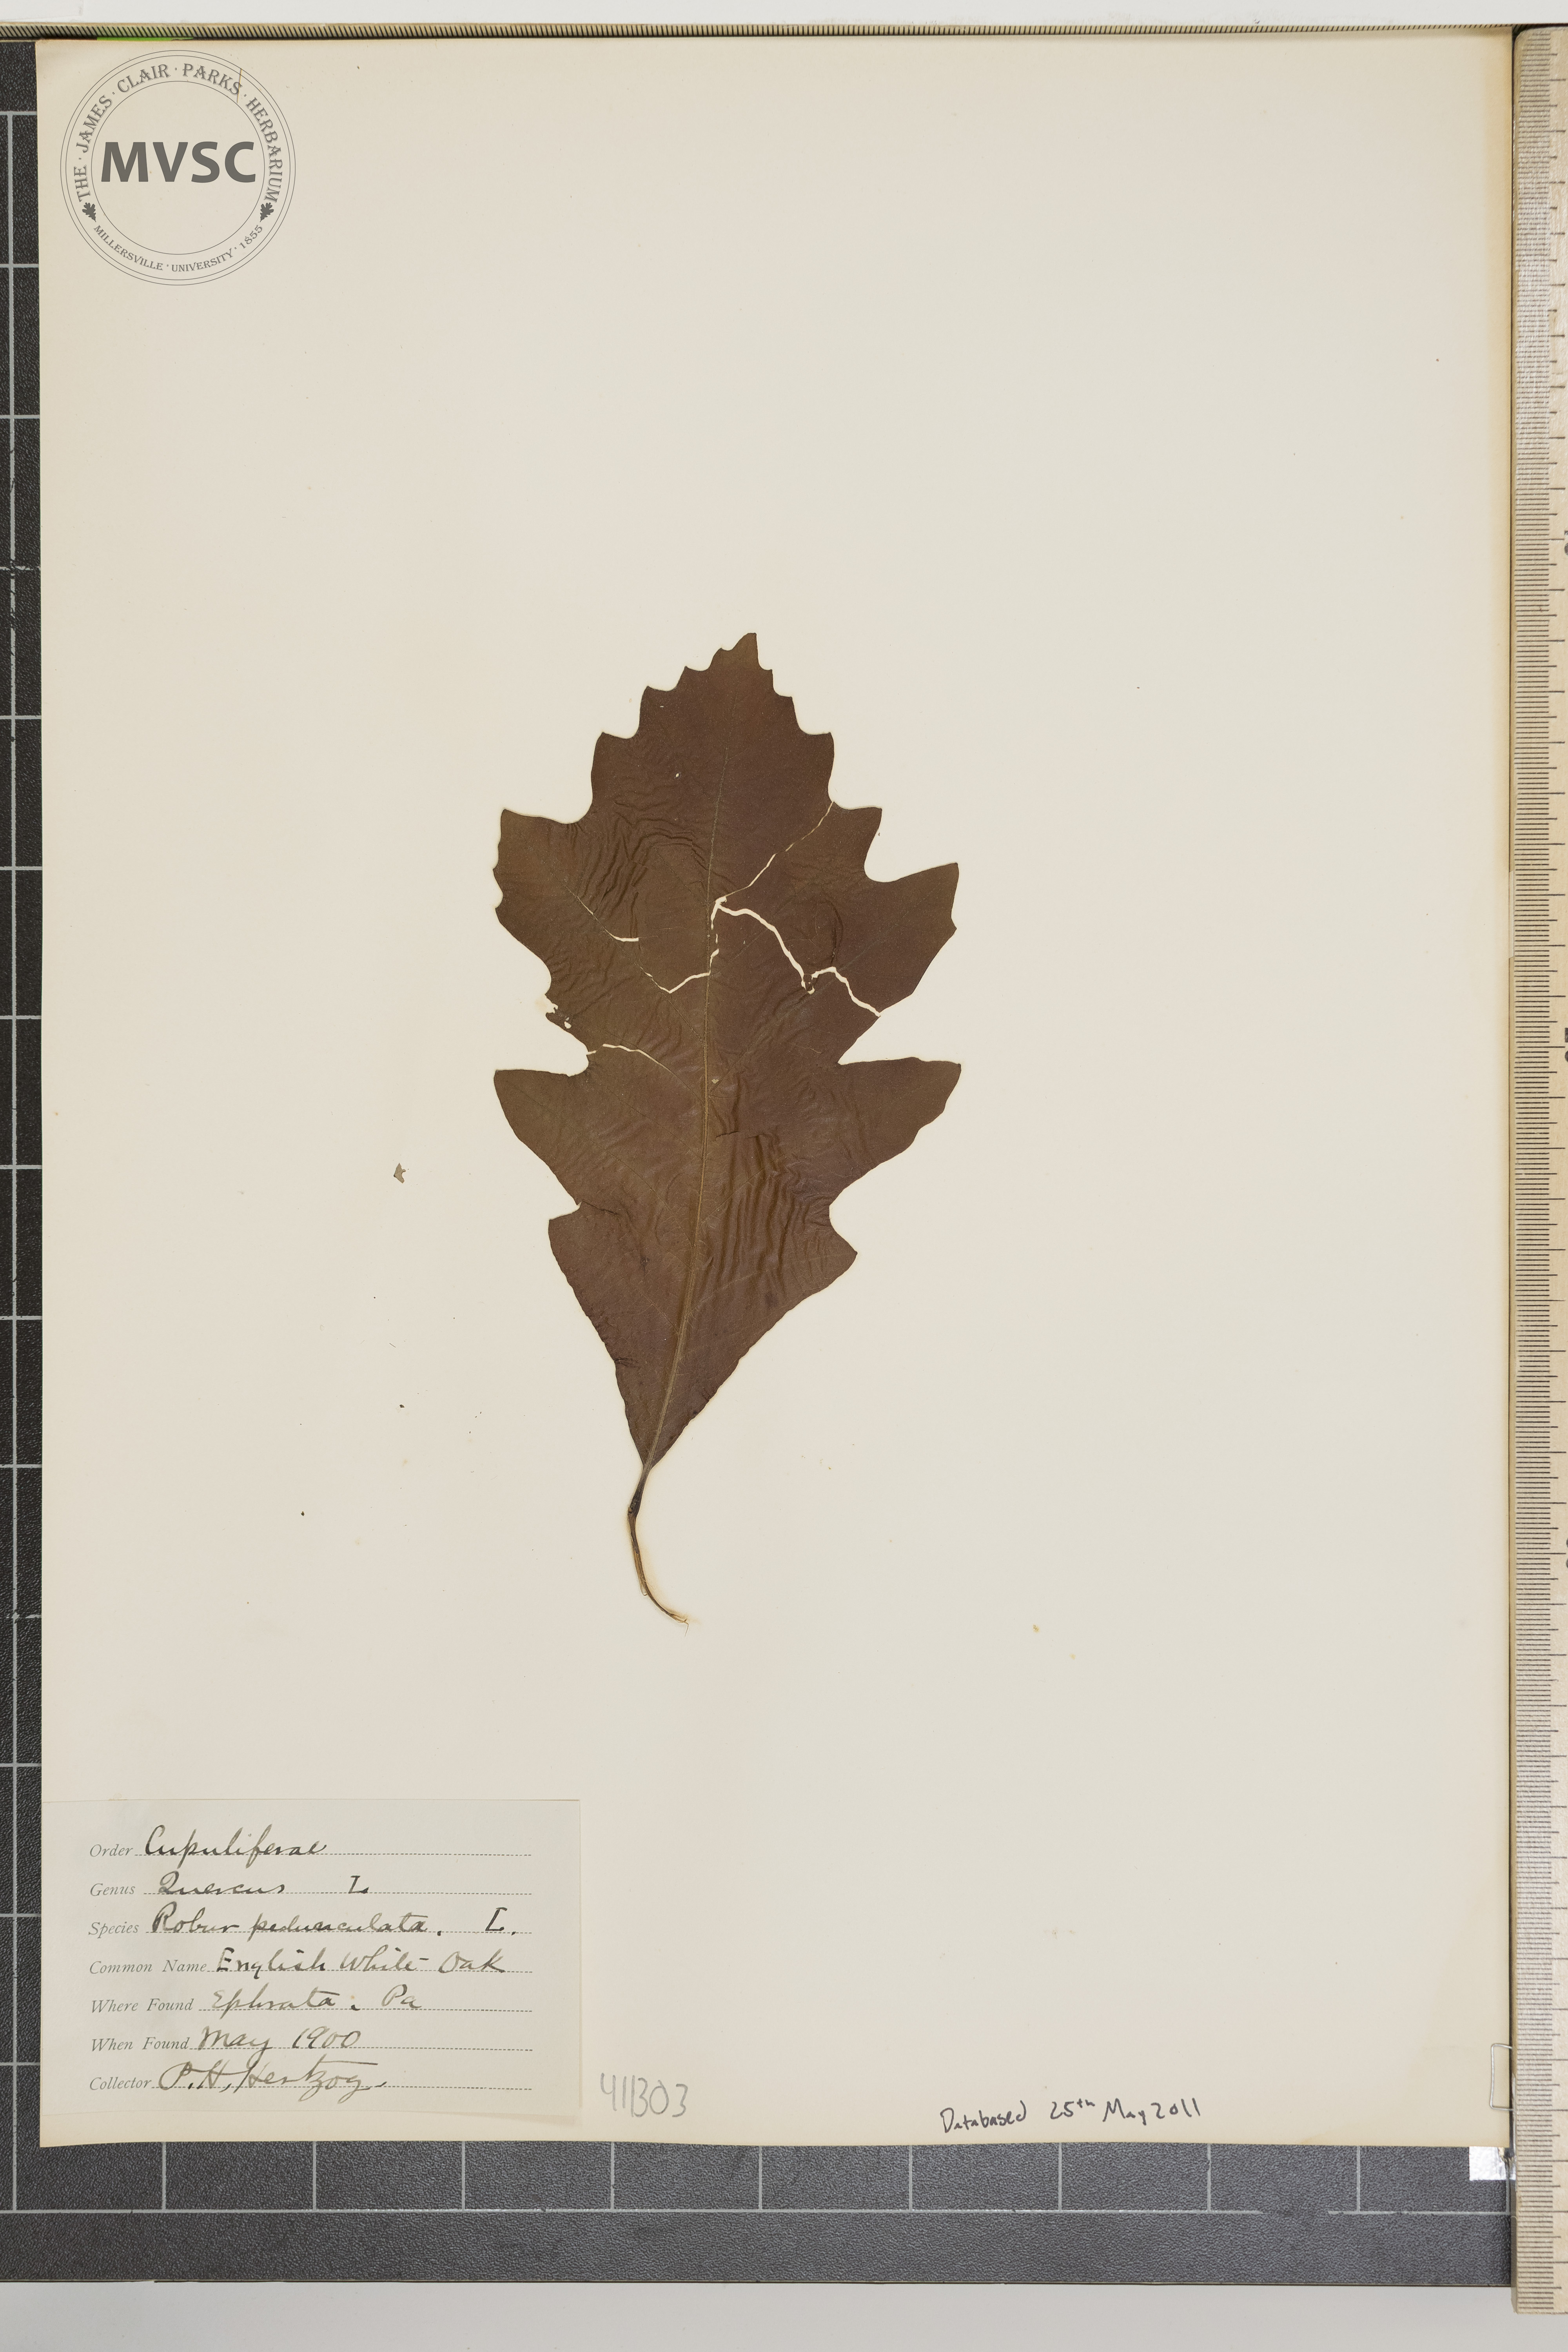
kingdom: Plantae
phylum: Tracheophyta
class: Magnoliopsida
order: Fagales
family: Fagaceae
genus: Quercus
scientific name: Quercus robur
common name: Pedunculate oak
